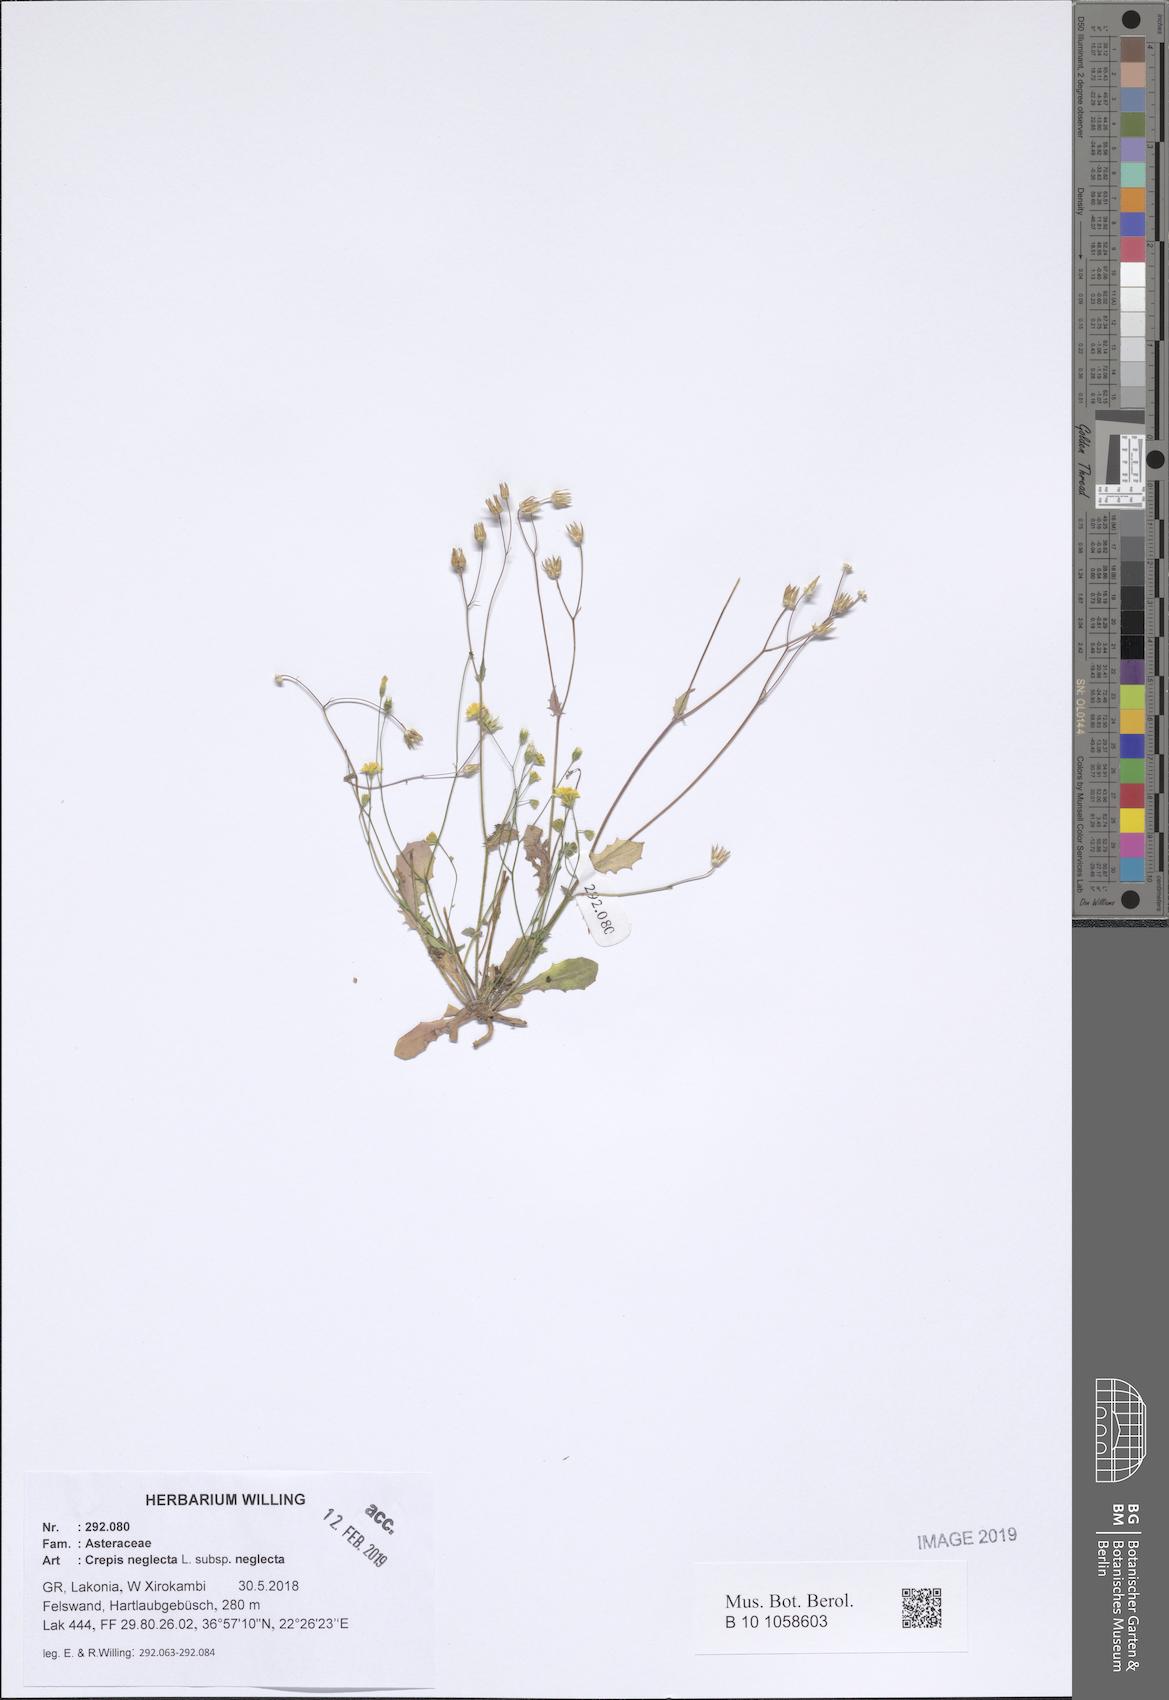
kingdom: Plantae
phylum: Tracheophyta
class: Magnoliopsida
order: Asterales
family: Asteraceae
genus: Crepis
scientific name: Crepis neglecta
